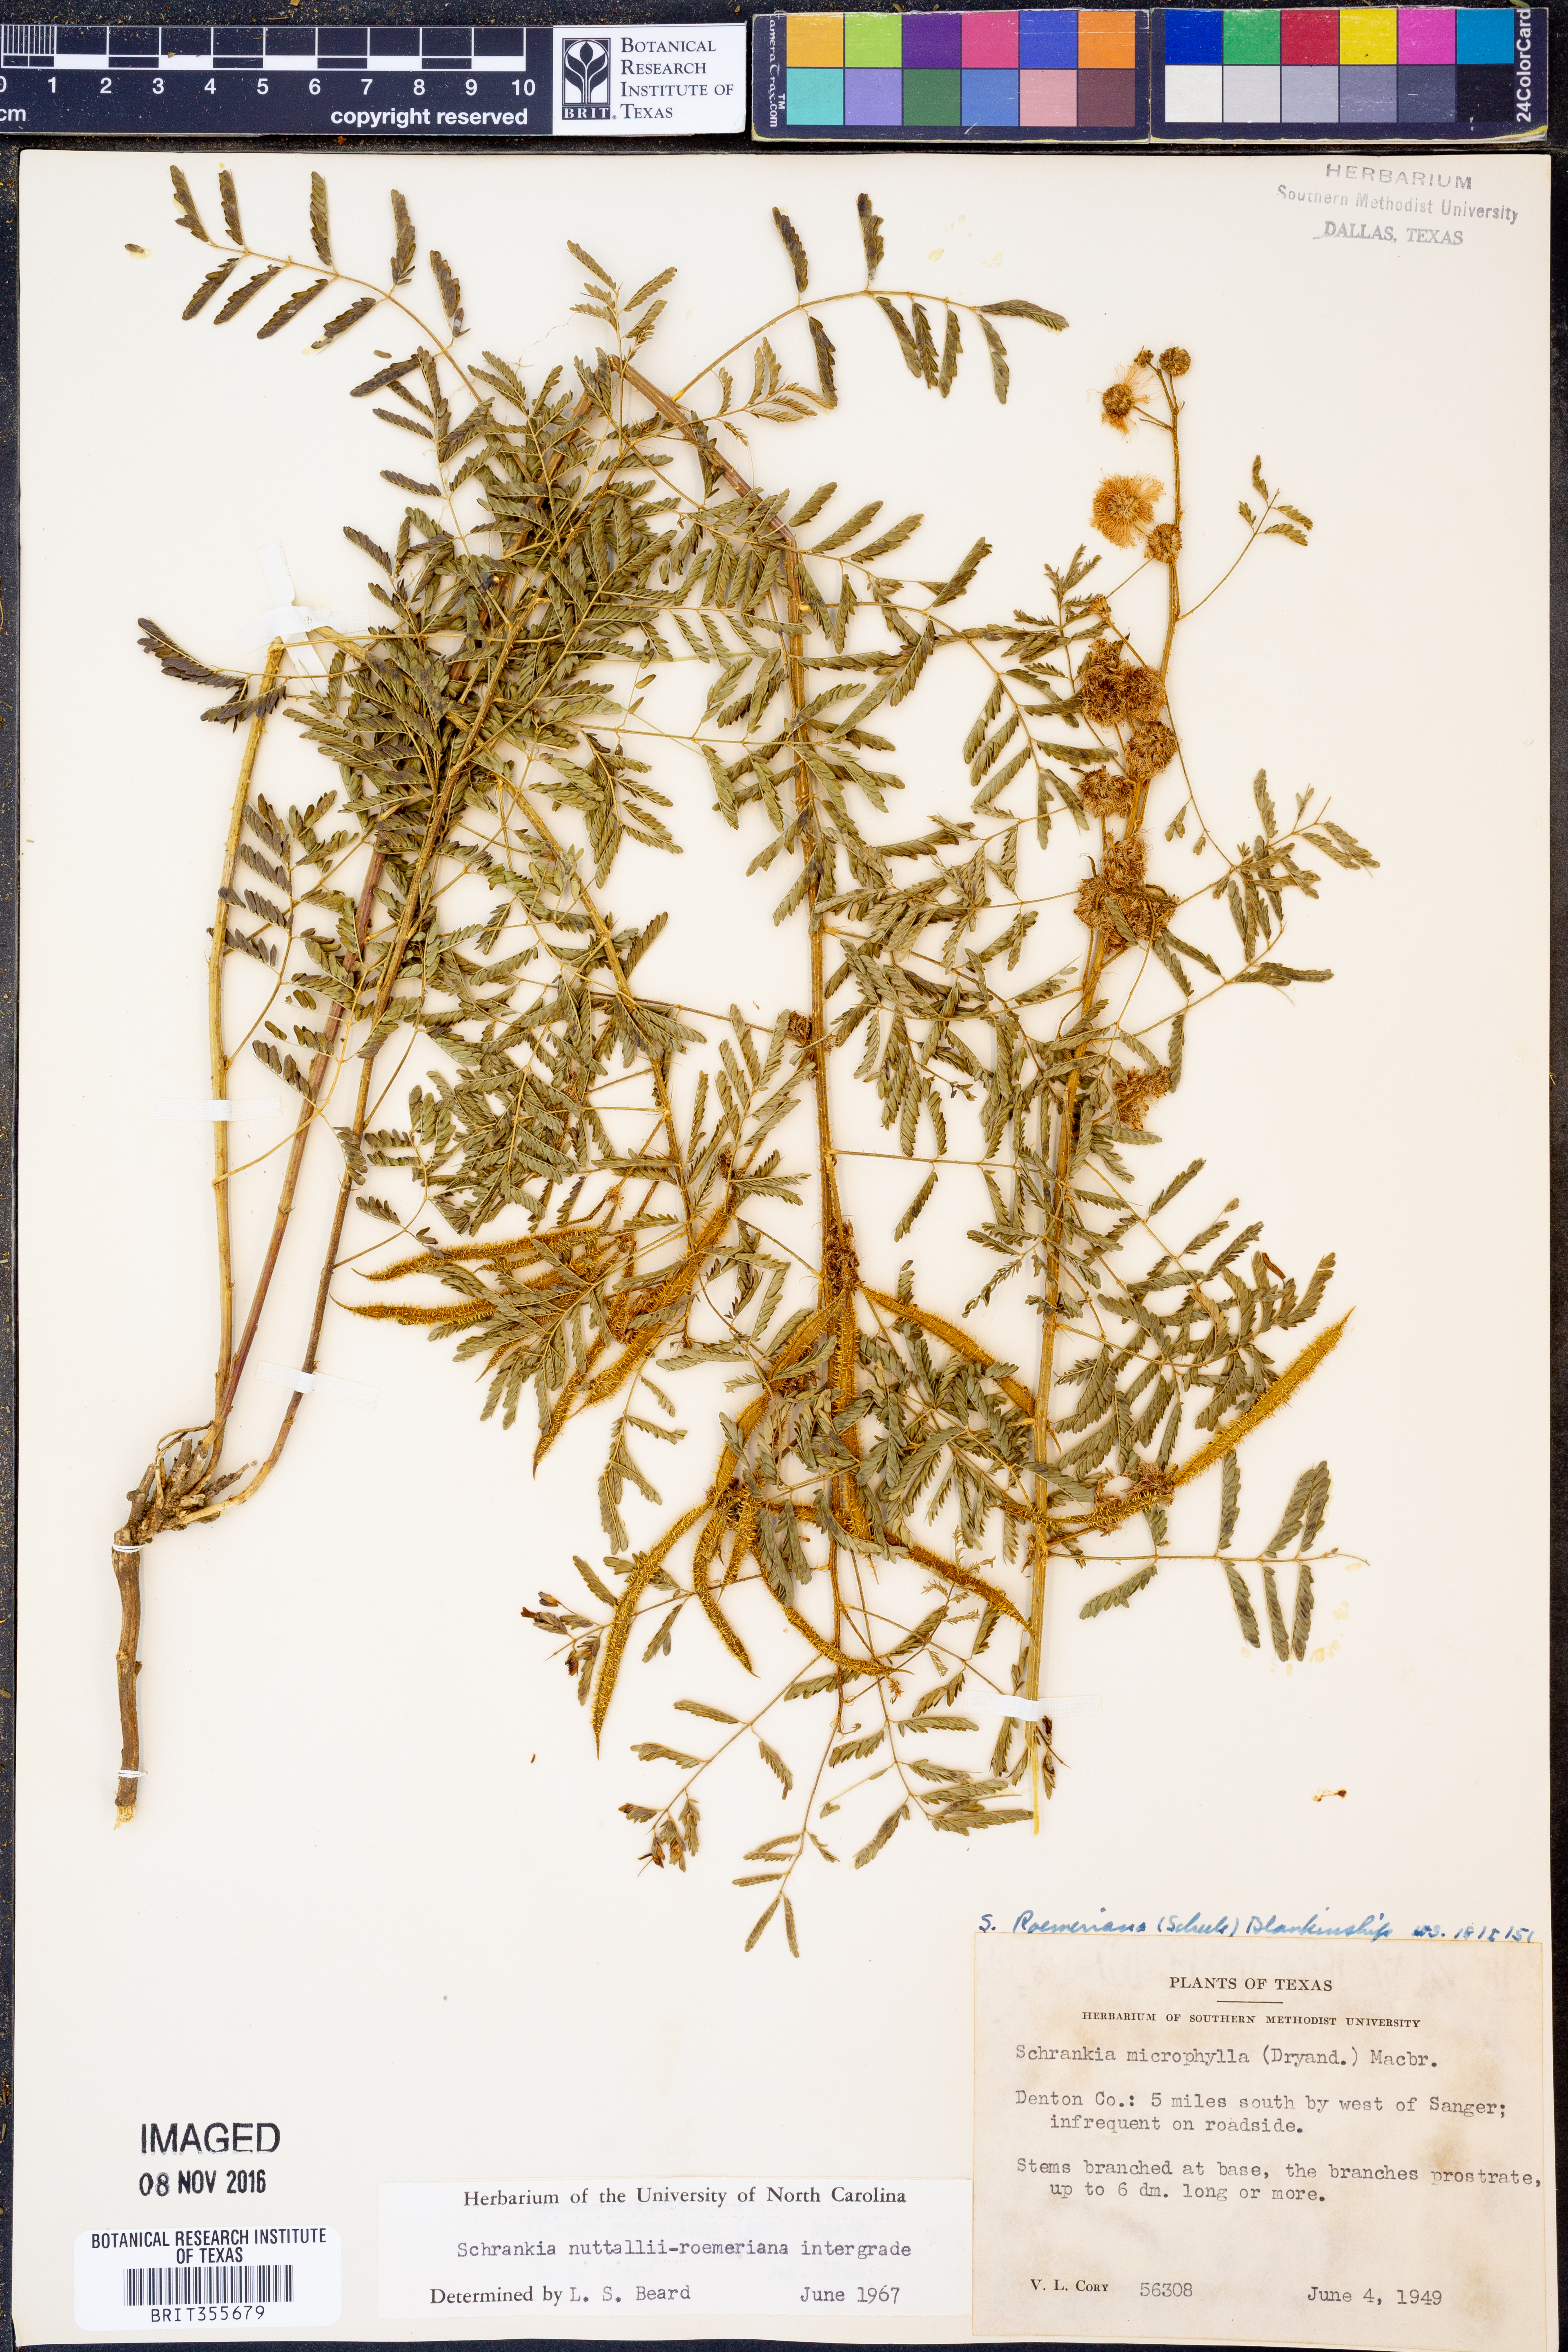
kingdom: Plantae
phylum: Tracheophyta
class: Magnoliopsida
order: Fabales
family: Fabaceae
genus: Mimosa
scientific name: Mimosa quadrivalvis
